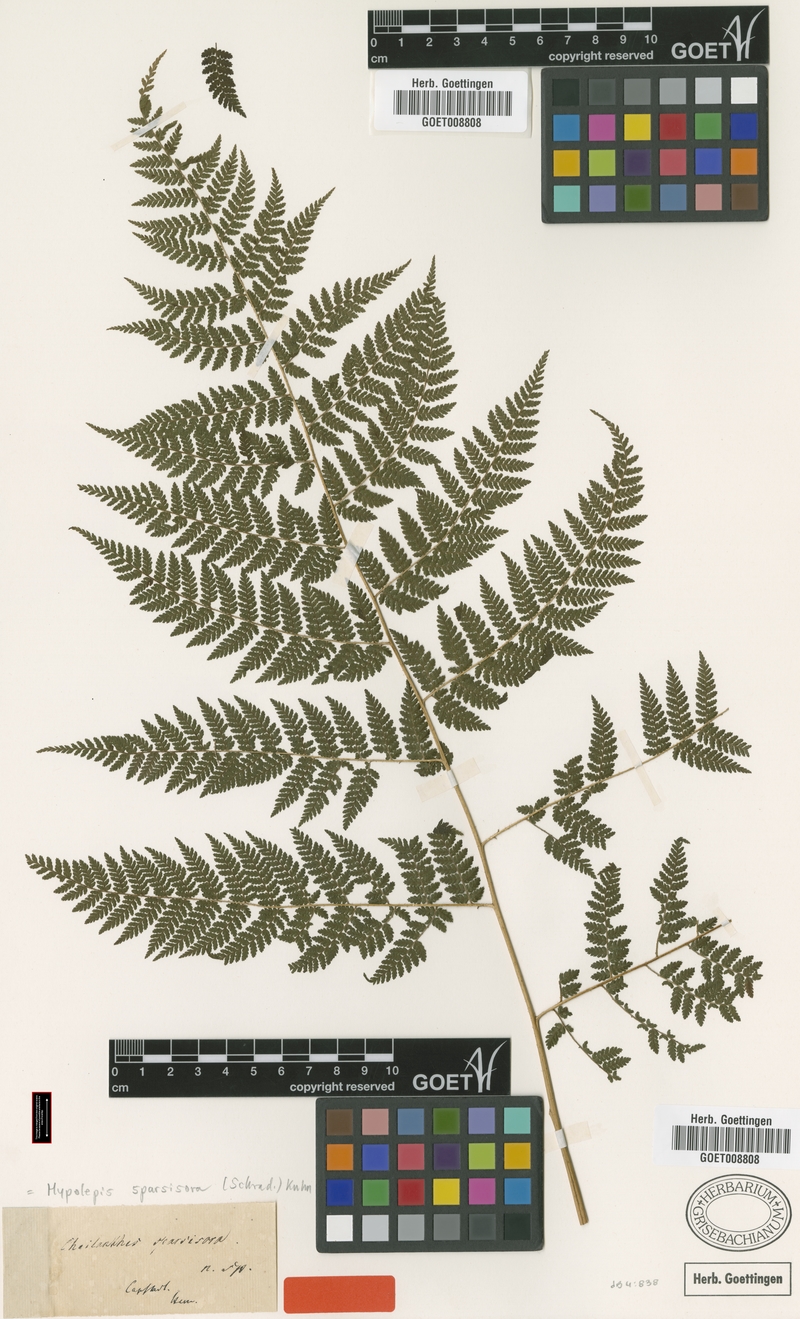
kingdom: Plantae
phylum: Tracheophyta
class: Polypodiopsida
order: Polypodiales
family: Dennstaedtiaceae
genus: Hypolepis
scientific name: Hypolepis sparsisora
